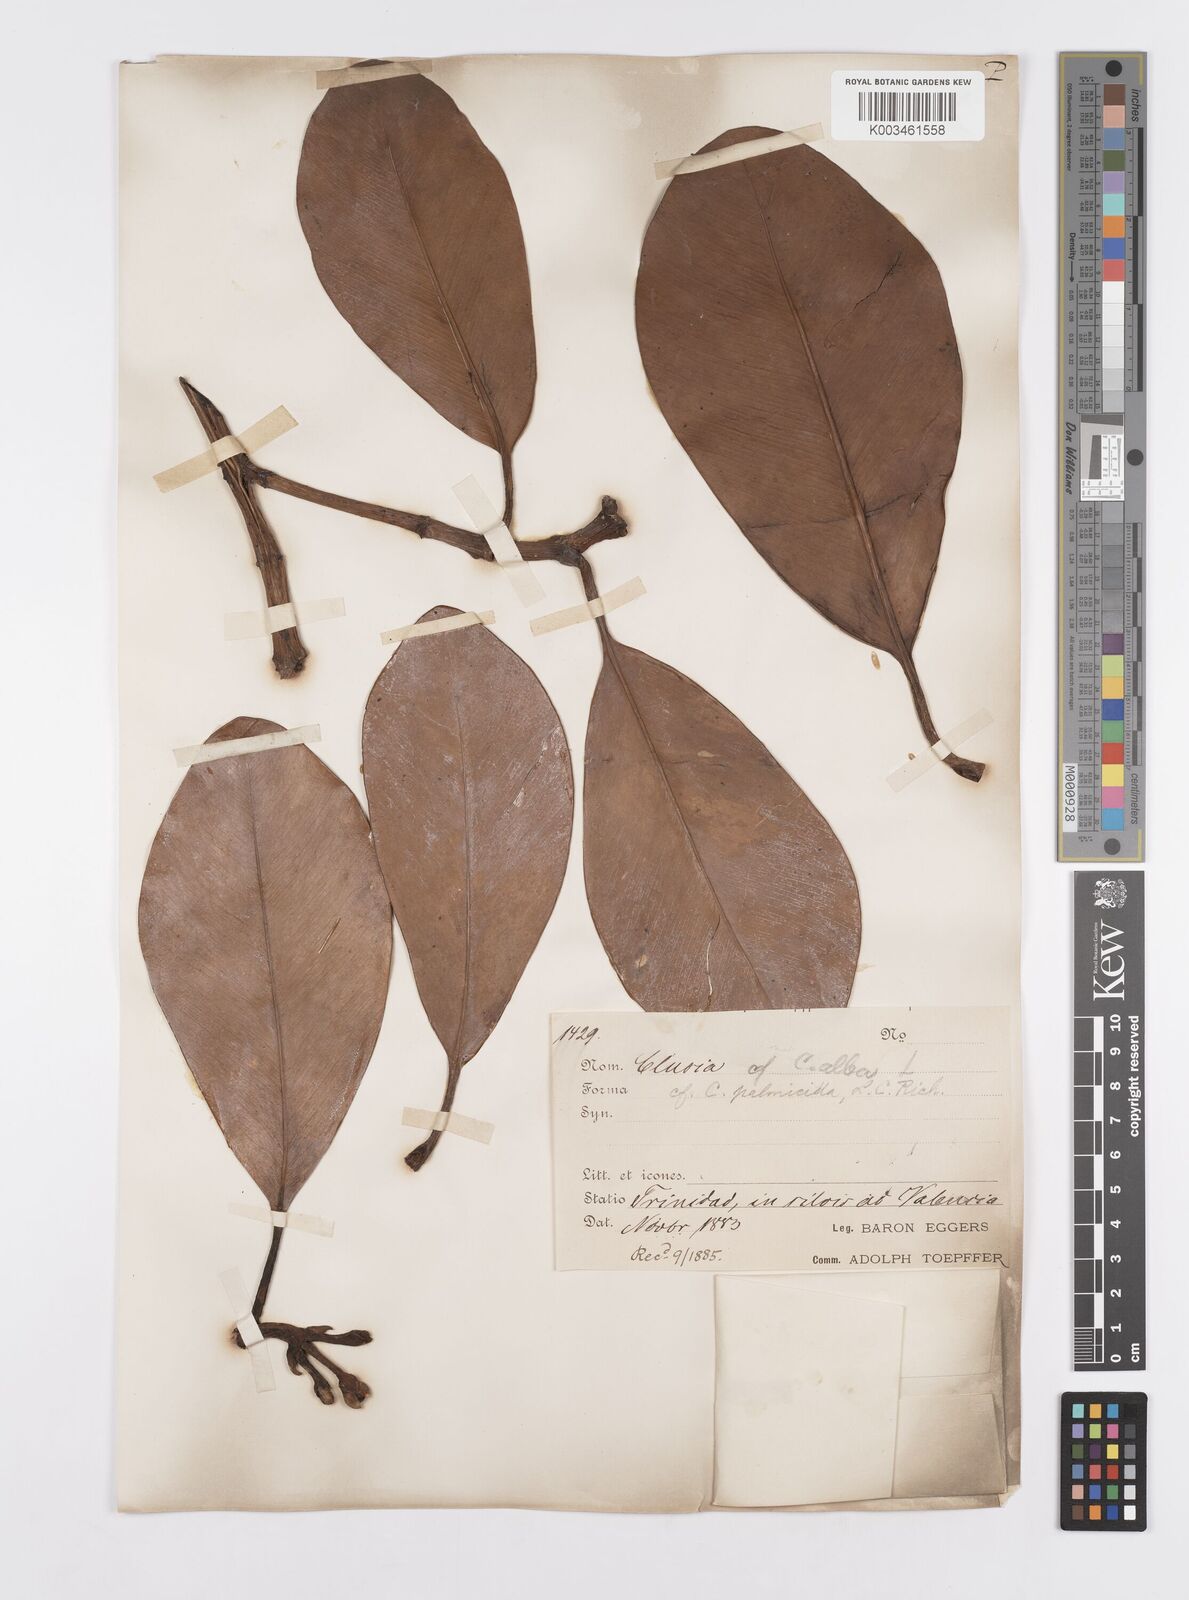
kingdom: Plantae
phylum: Tracheophyta
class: Magnoliopsida
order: Malpighiales
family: Clusiaceae
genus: Clusia
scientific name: Clusia palmicida
